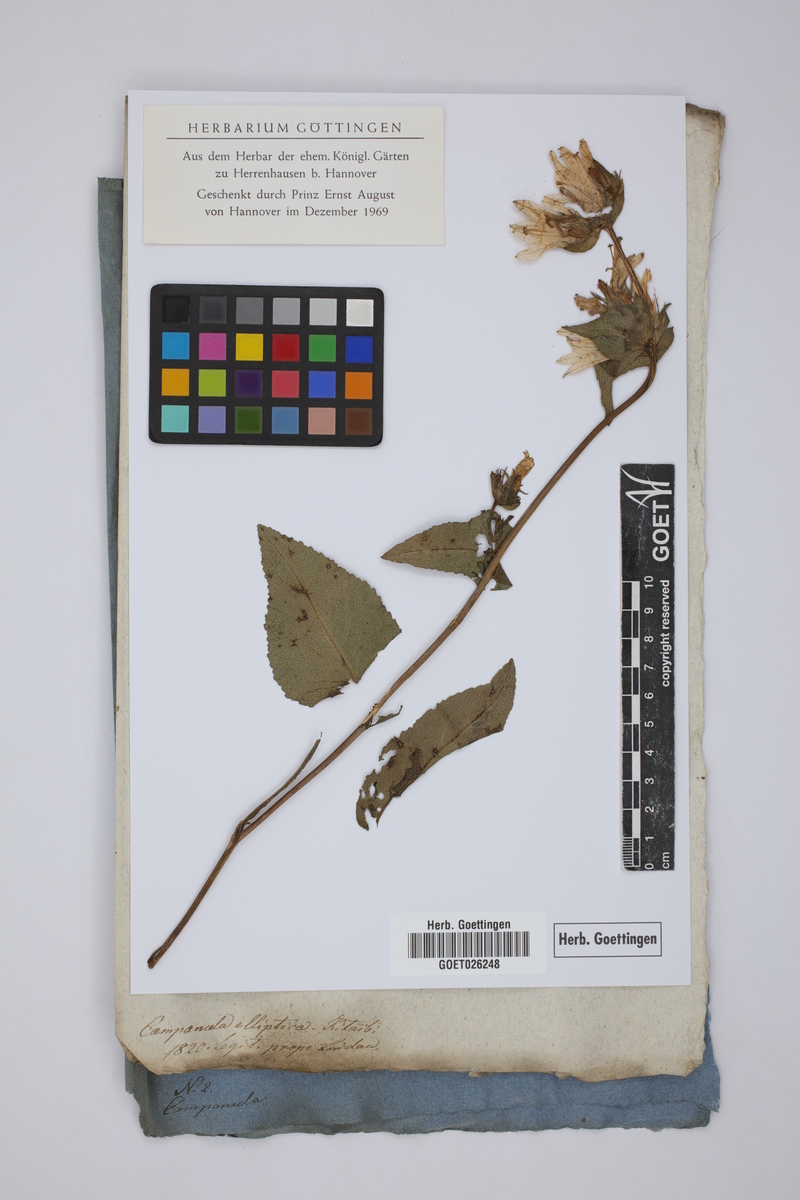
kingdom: Plantae
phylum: Tracheophyta
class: Magnoliopsida
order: Asterales
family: Campanulaceae
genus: Campanula
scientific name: Campanula glomerata
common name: Clustered bellflower
